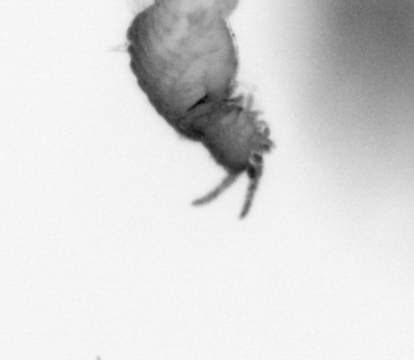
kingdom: Animalia
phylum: Annelida
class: Polychaeta
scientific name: Polychaeta
